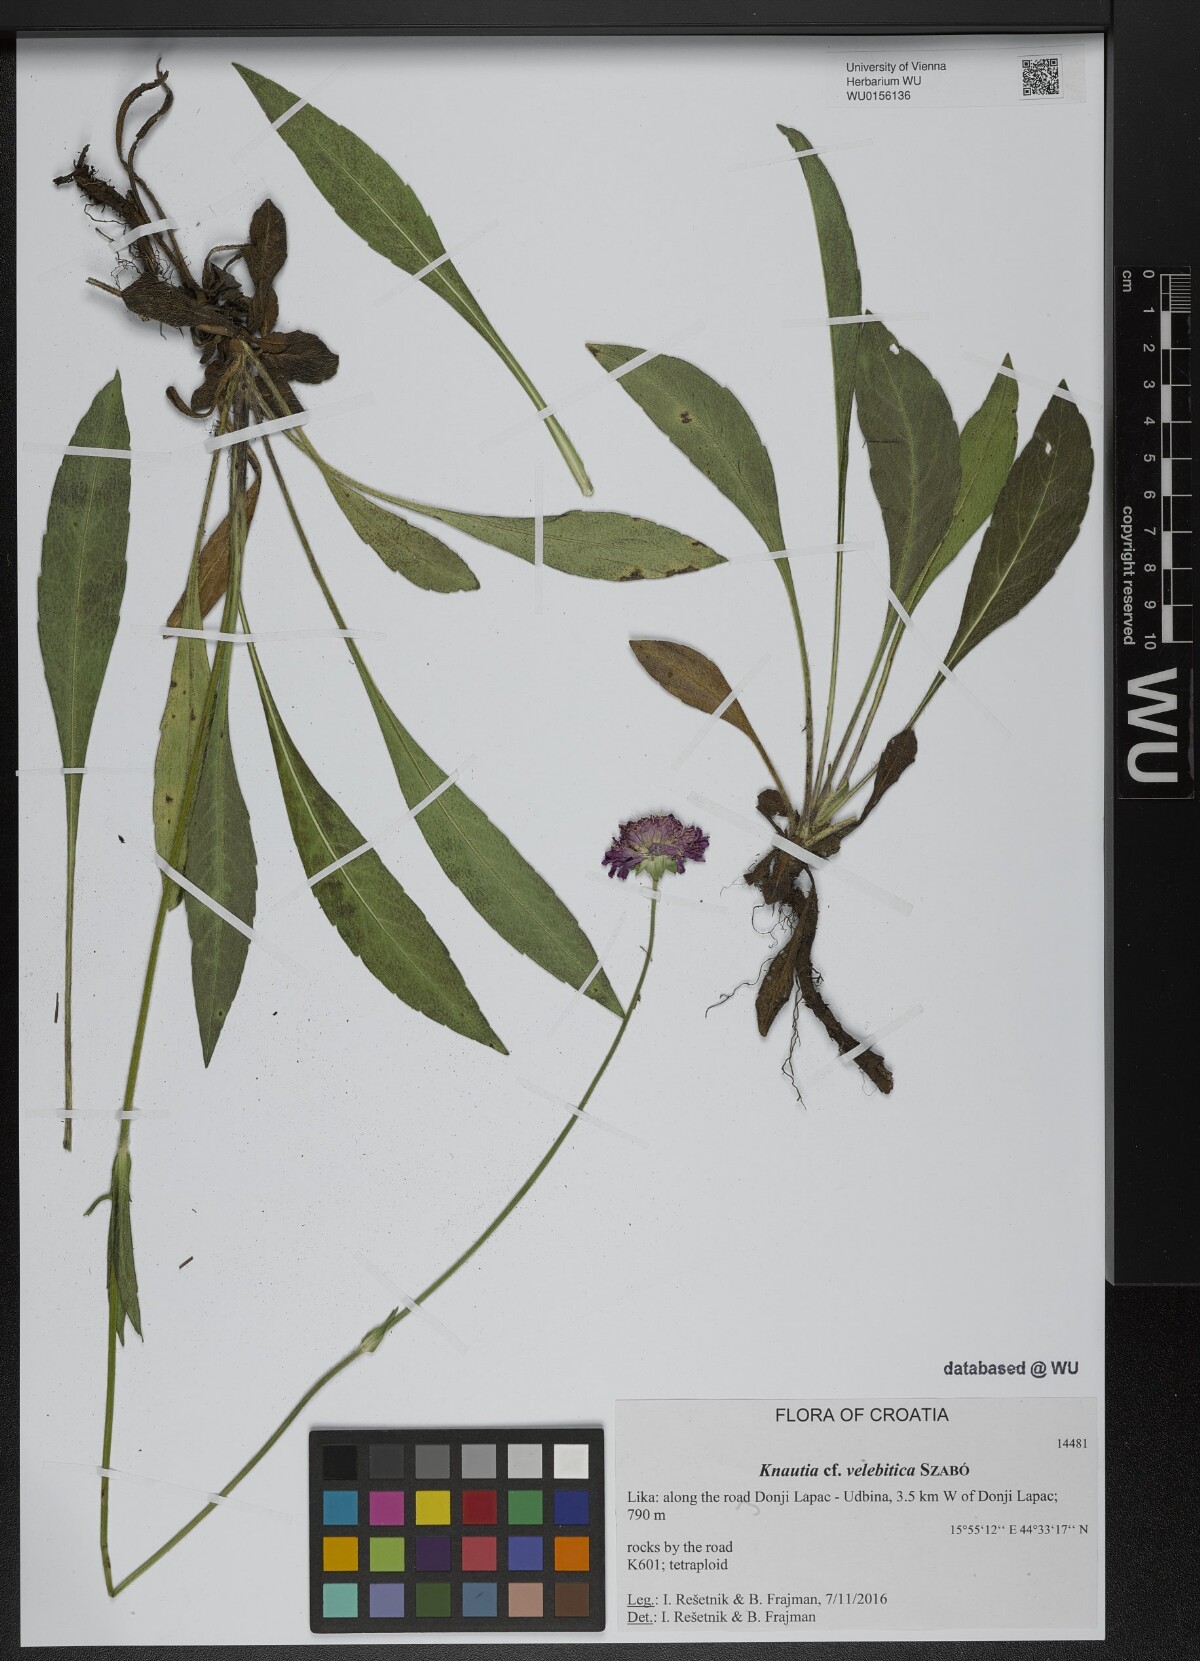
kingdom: Plantae
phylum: Tracheophyta
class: Magnoliopsida
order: Dipsacales
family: Caprifoliaceae
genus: Knautia
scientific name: Knautia velebitica
